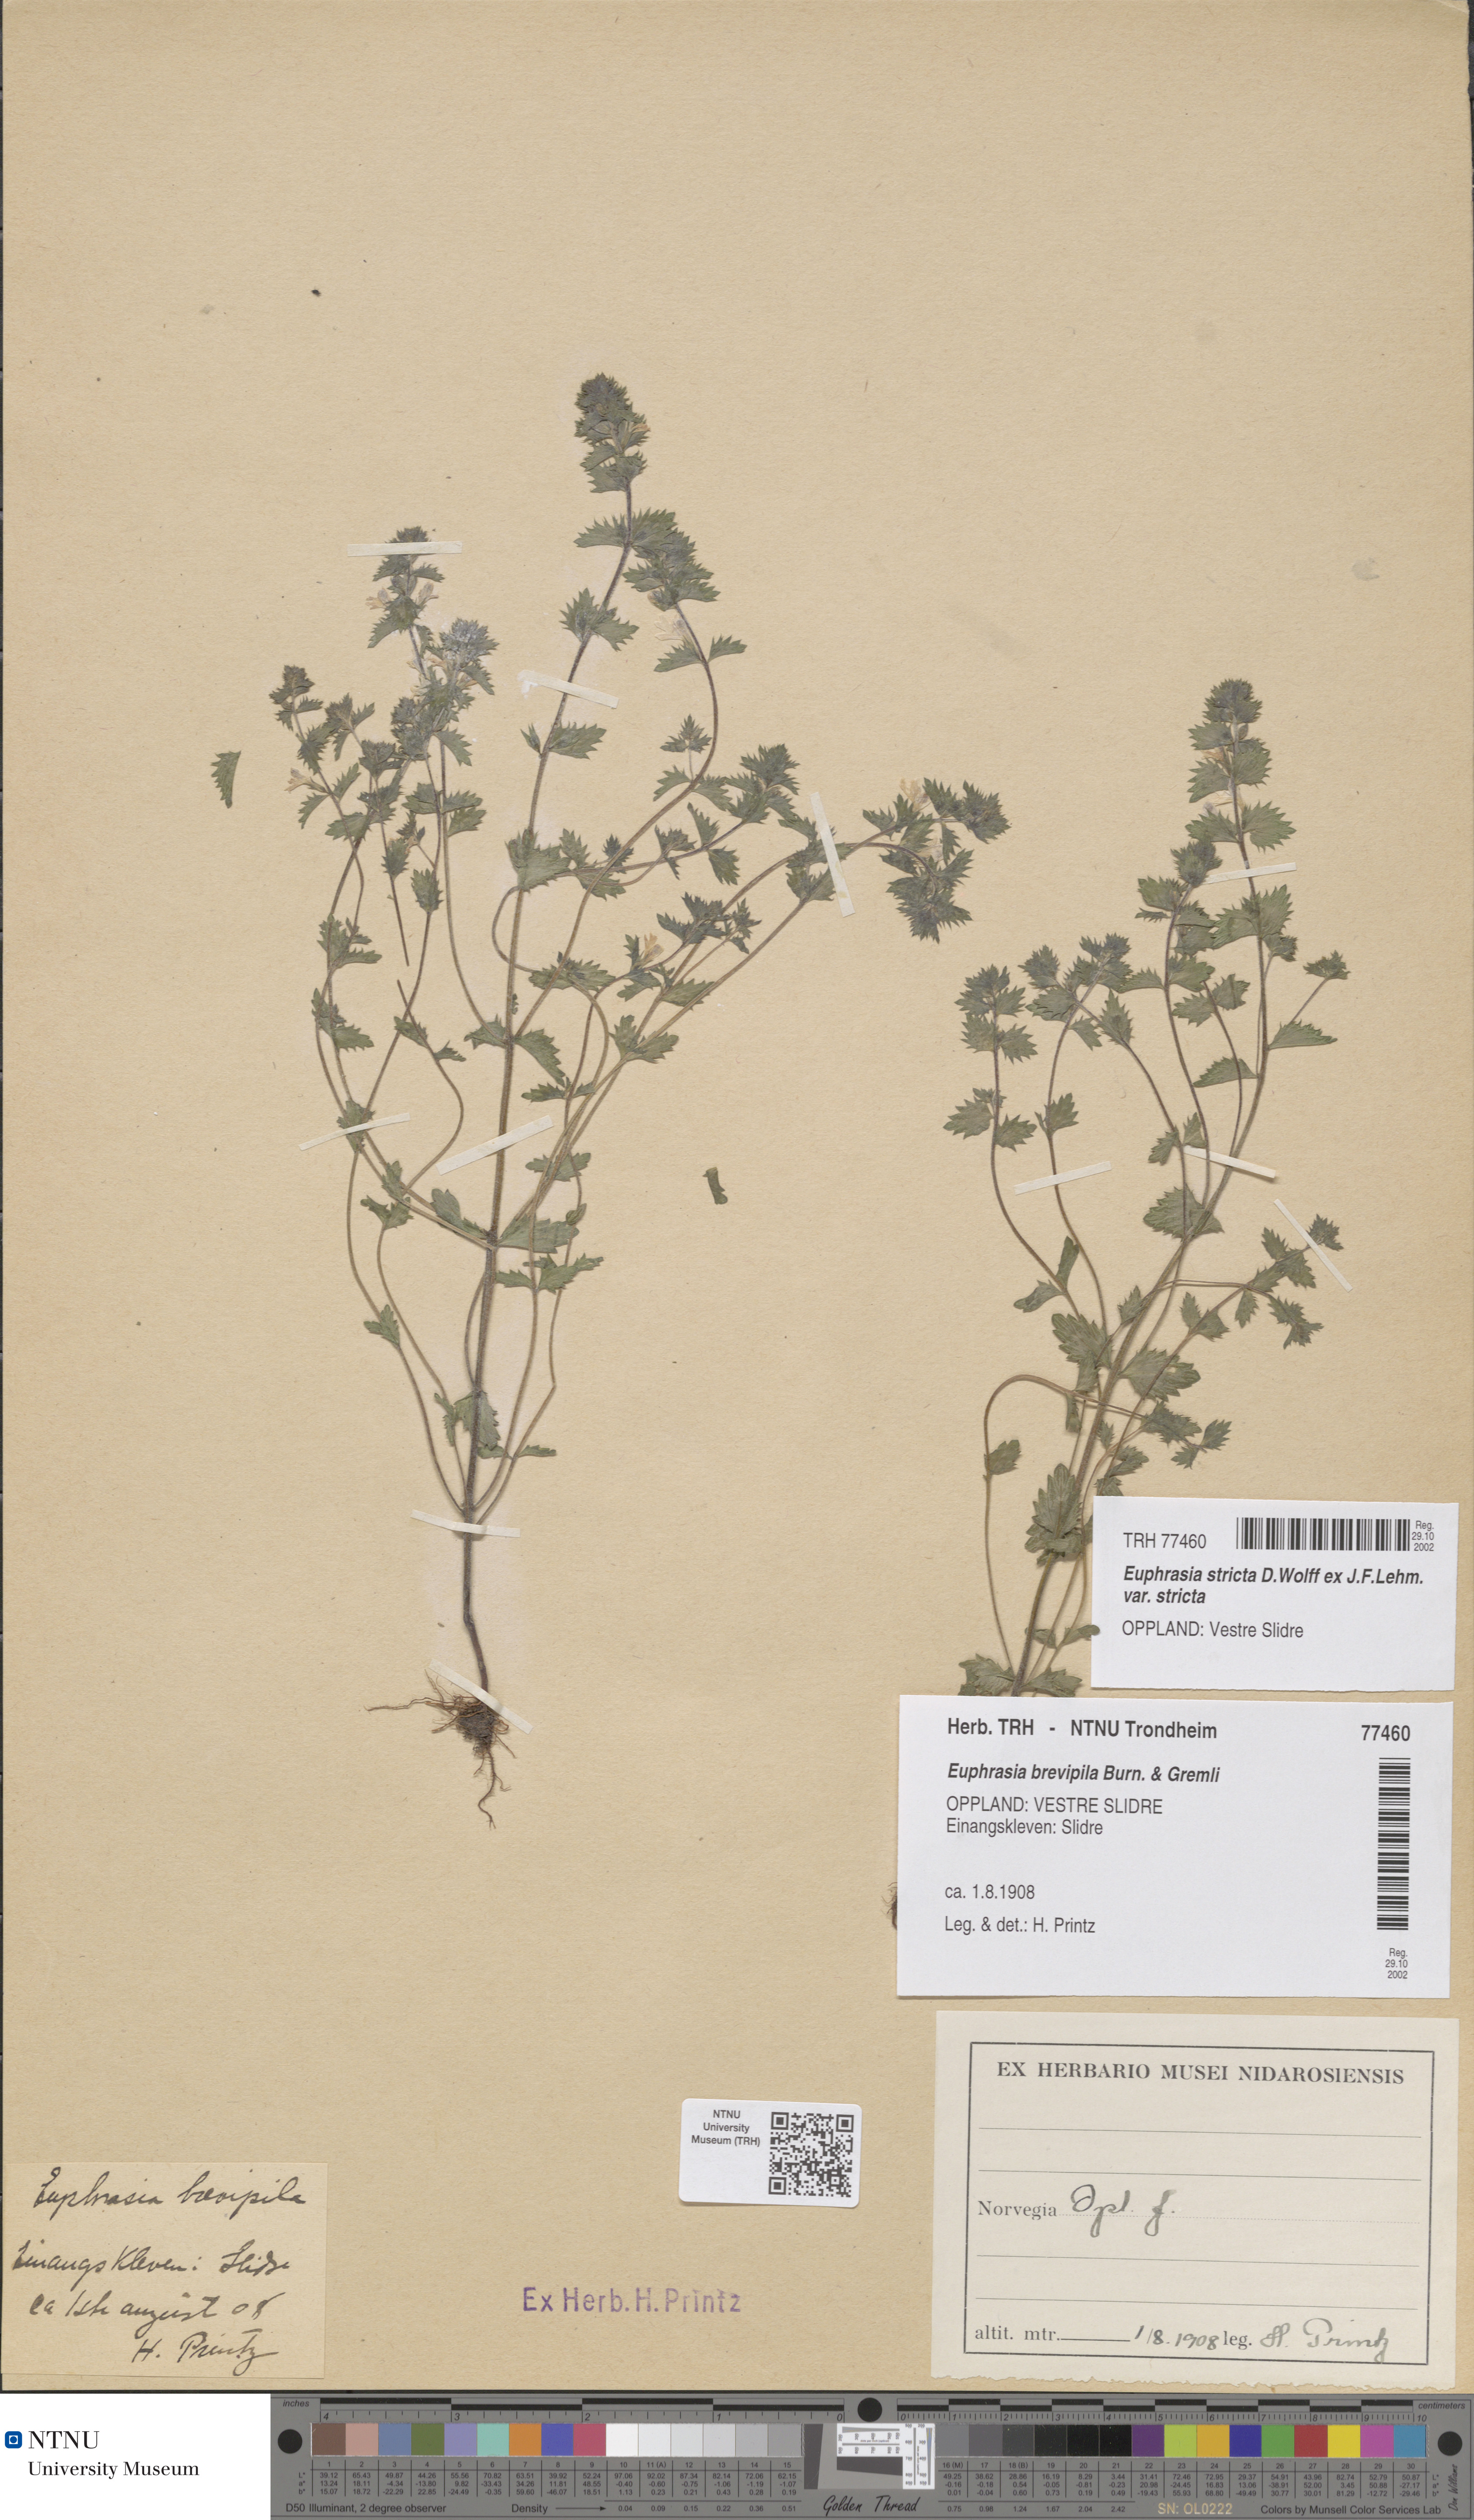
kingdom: Plantae
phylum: Tracheophyta
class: Magnoliopsida
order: Lamiales
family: Orobanchaceae
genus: Euphrasia
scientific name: Euphrasia vernalis
